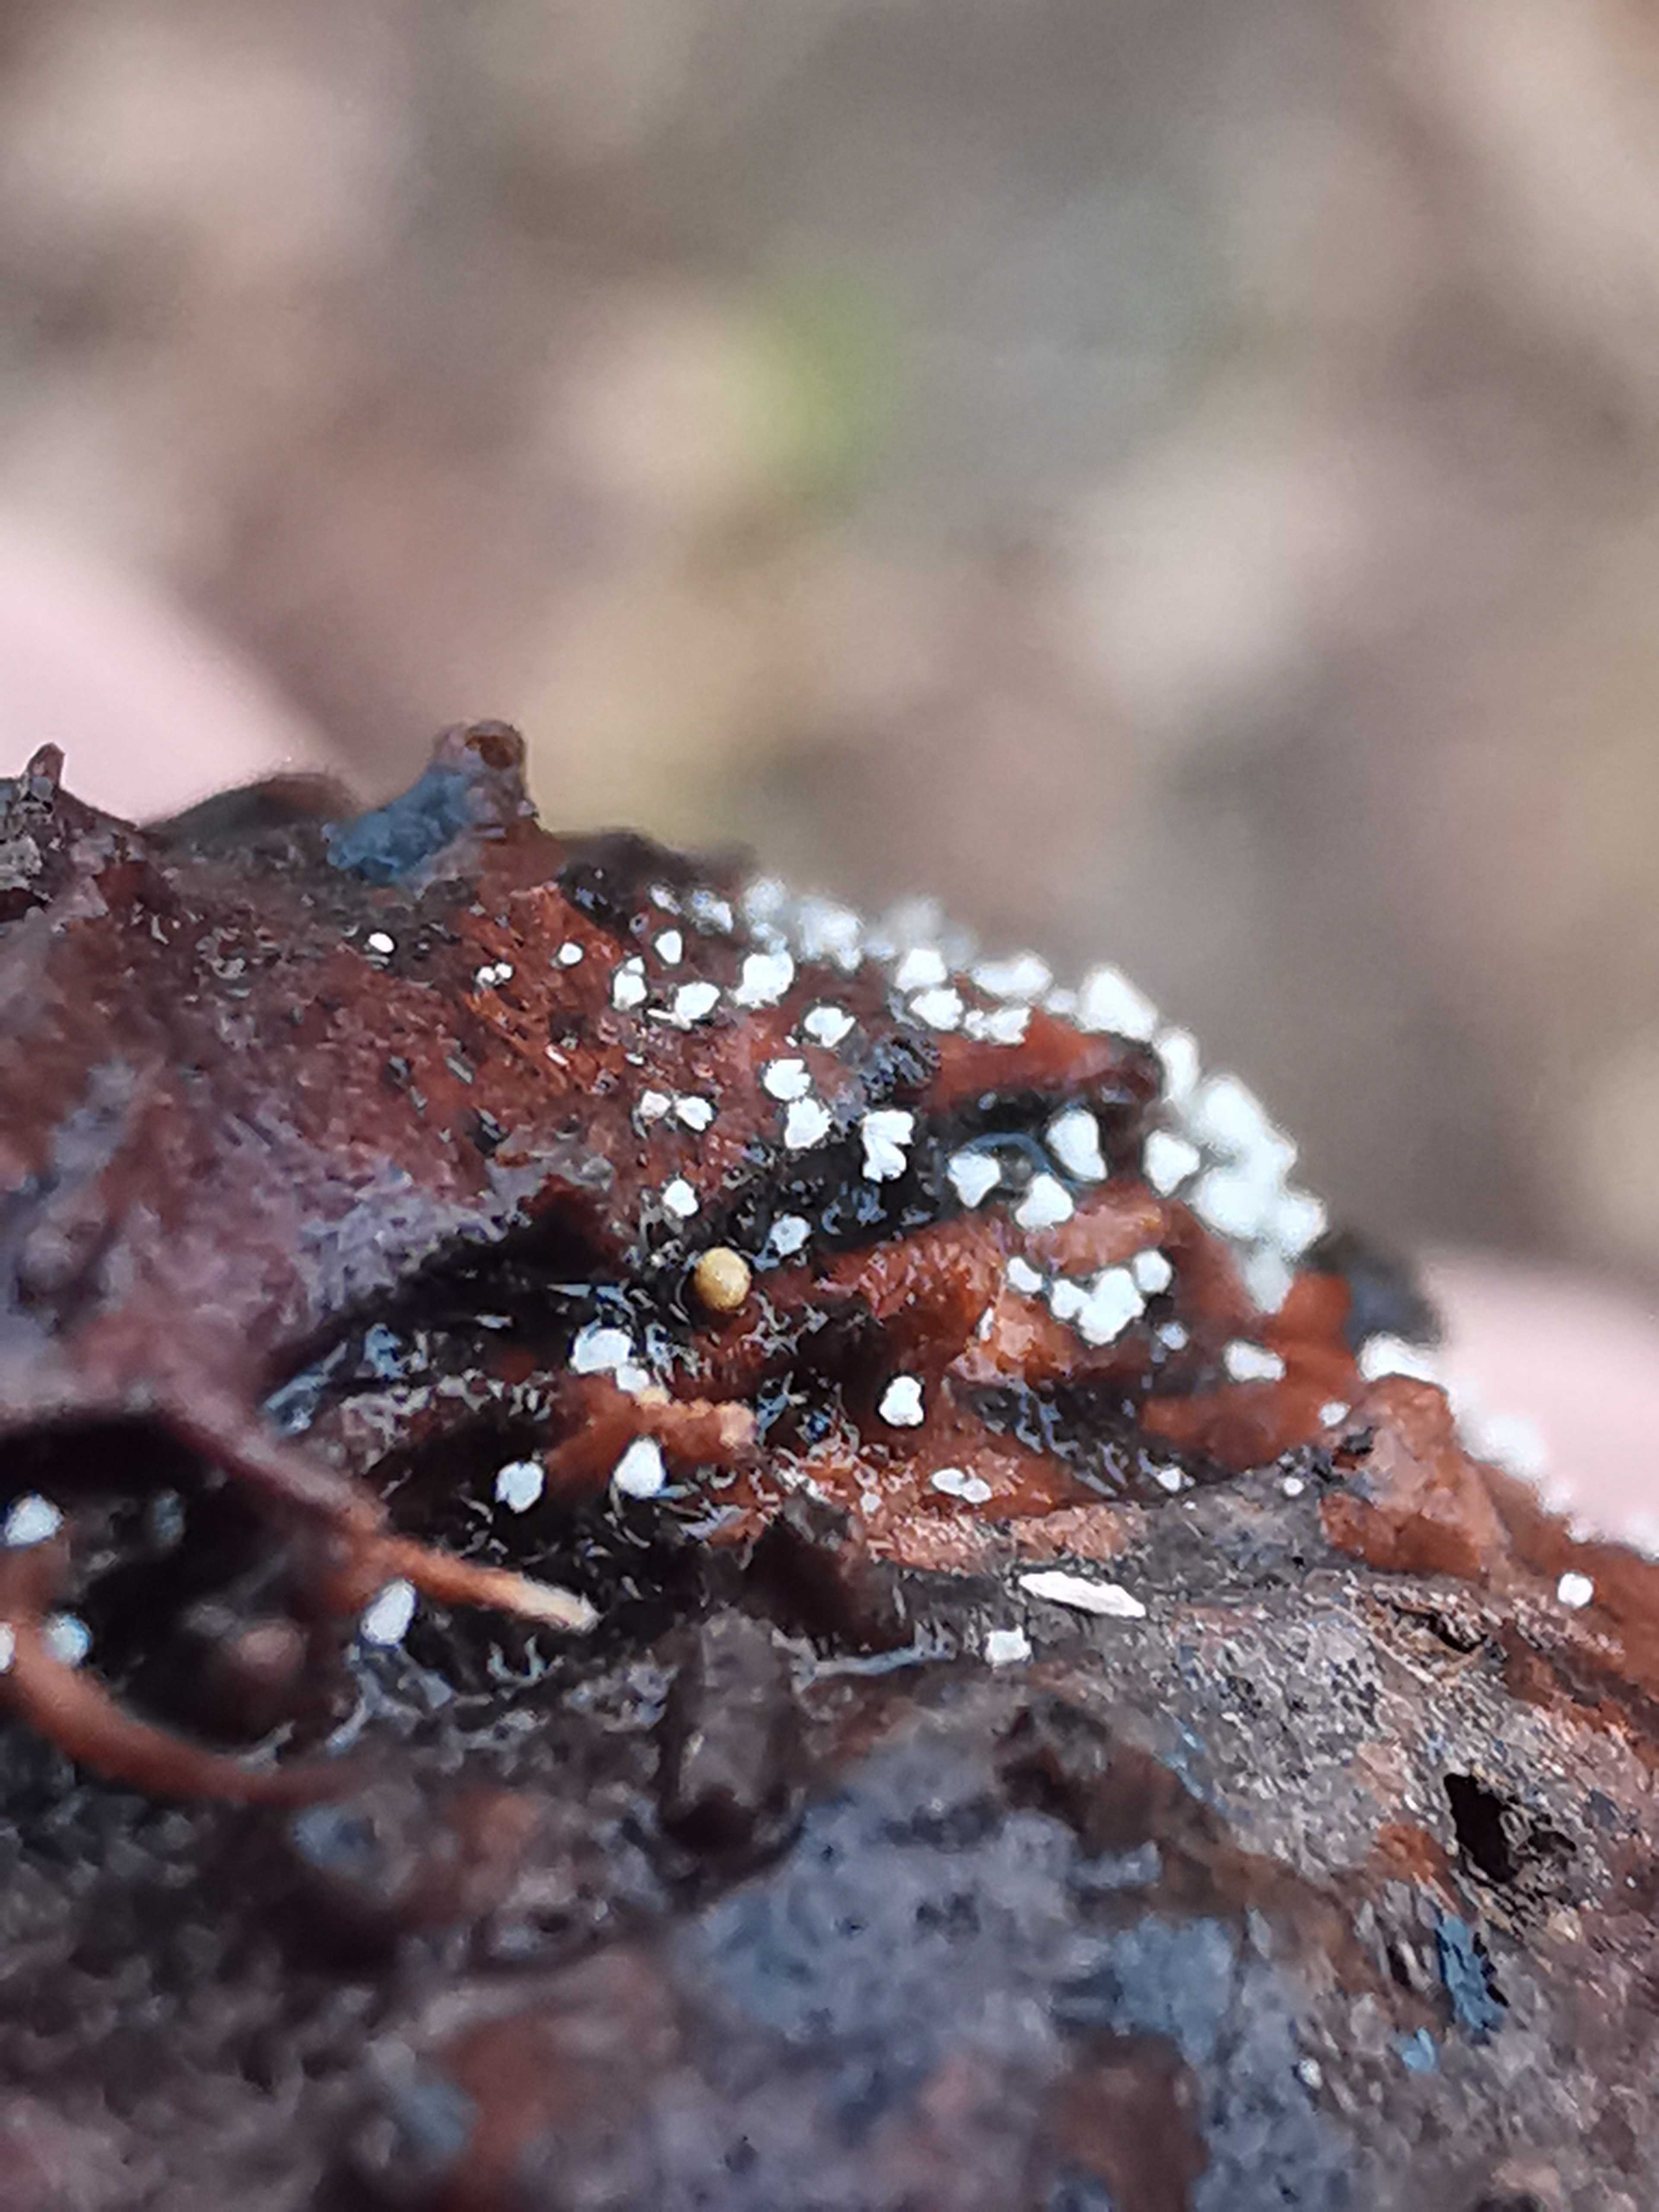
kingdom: Fungi
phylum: Ascomycota
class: Leotiomycetes
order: Helotiales
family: Lachnaceae
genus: Lachnum
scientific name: Lachnum virgineum
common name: jomfru-frynseskive
